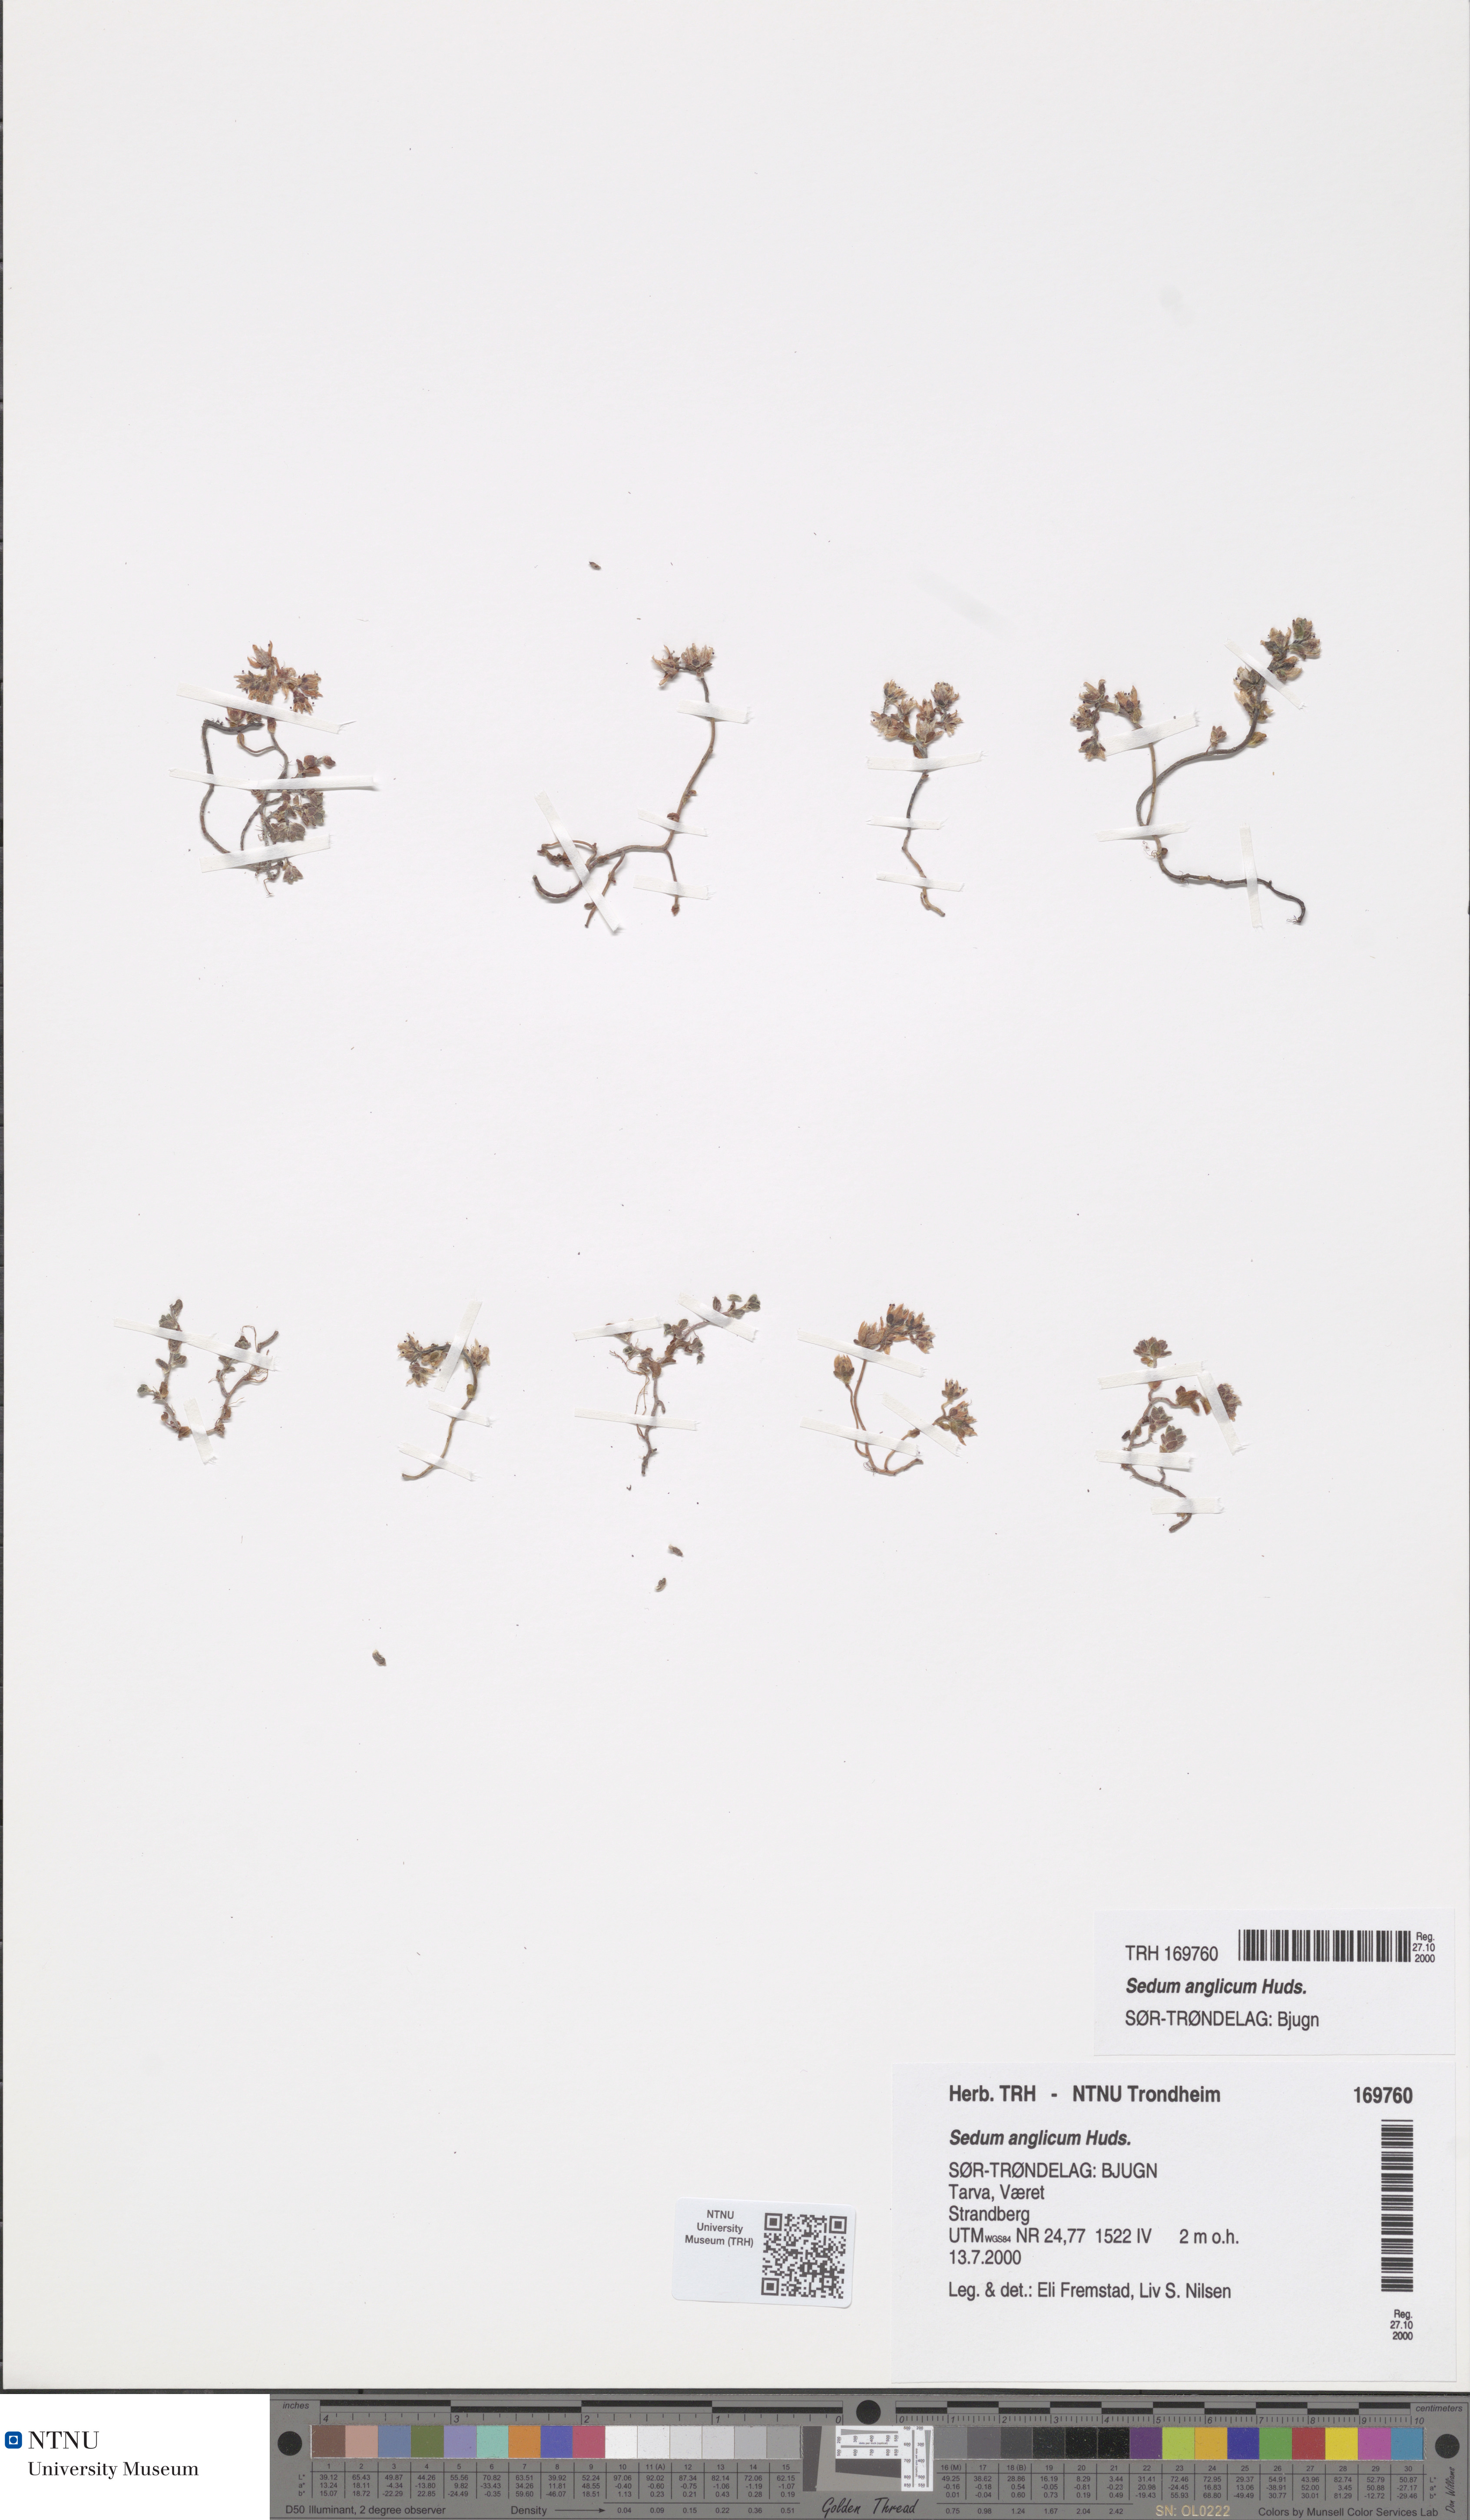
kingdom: Plantae
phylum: Tracheophyta
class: Magnoliopsida
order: Saxifragales
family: Crassulaceae
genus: Sedum
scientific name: Sedum anglicum
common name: English stonecrop
